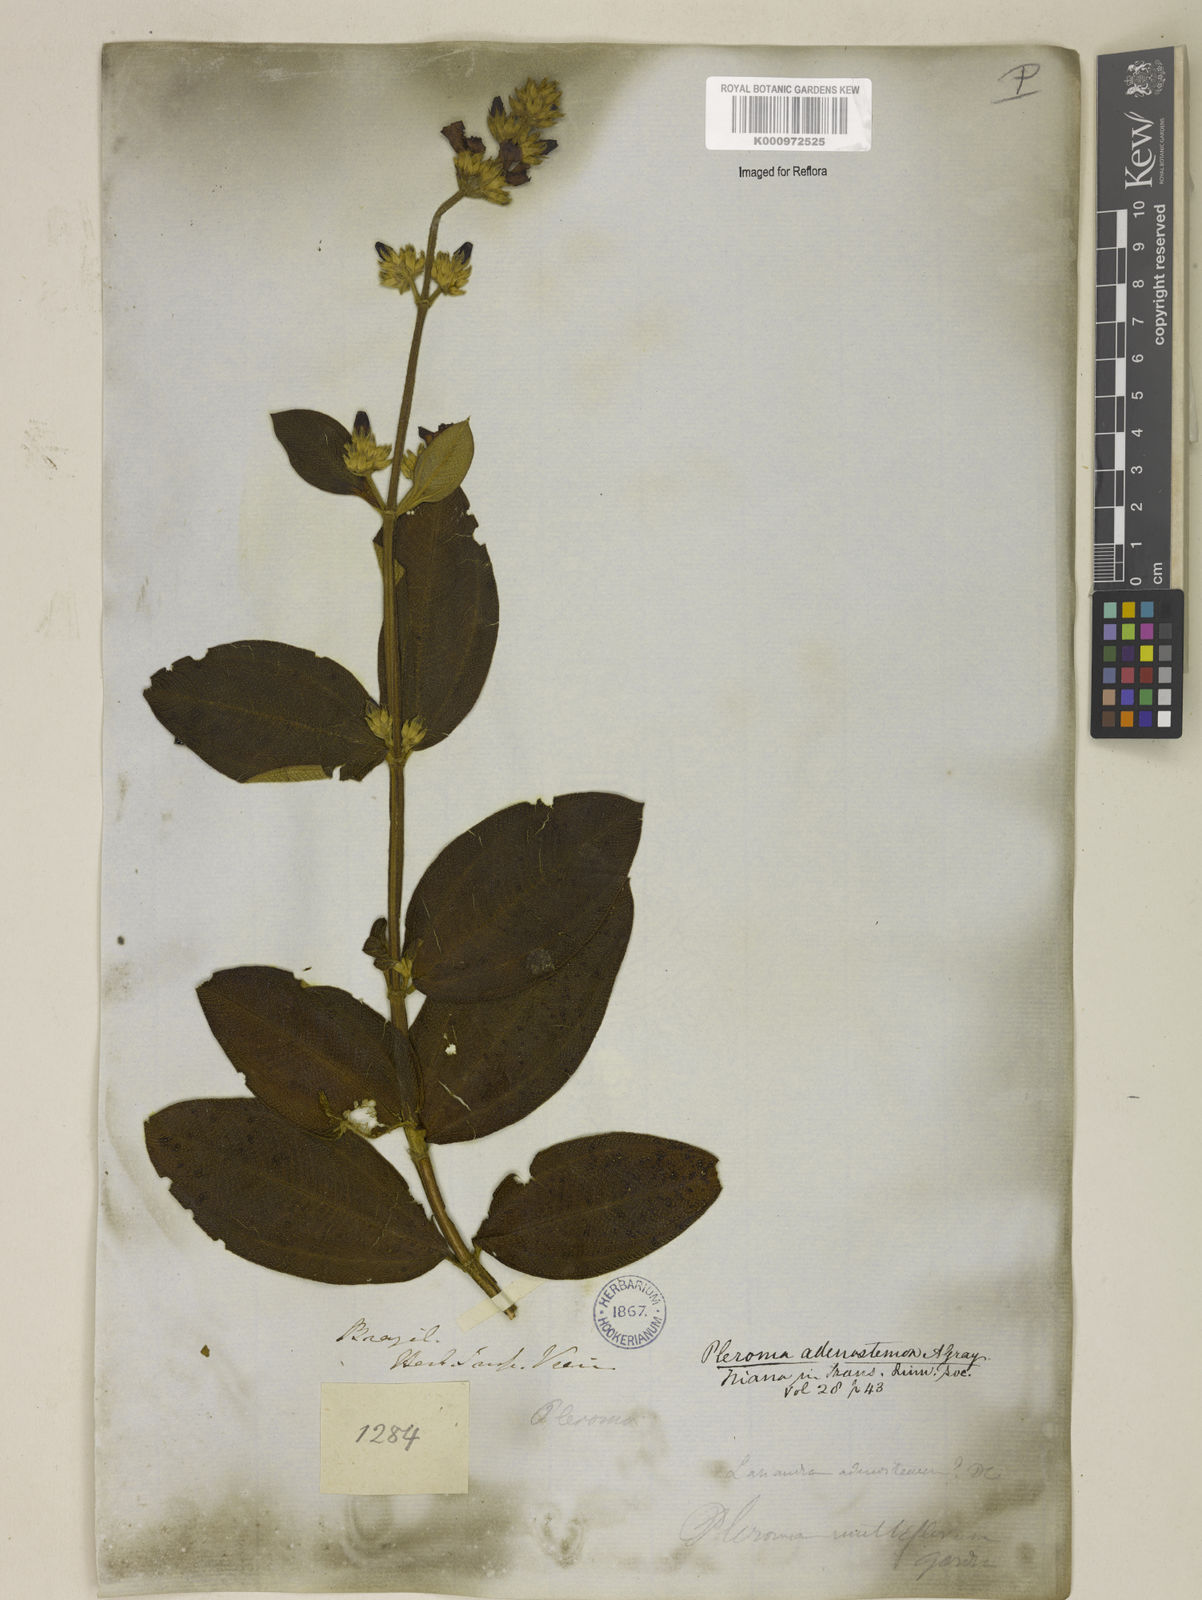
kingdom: Plantae
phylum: Tracheophyta
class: Magnoliopsida
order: Myrtales
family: Melastomataceae
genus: Pleroma
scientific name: Pleroma heteromallum
